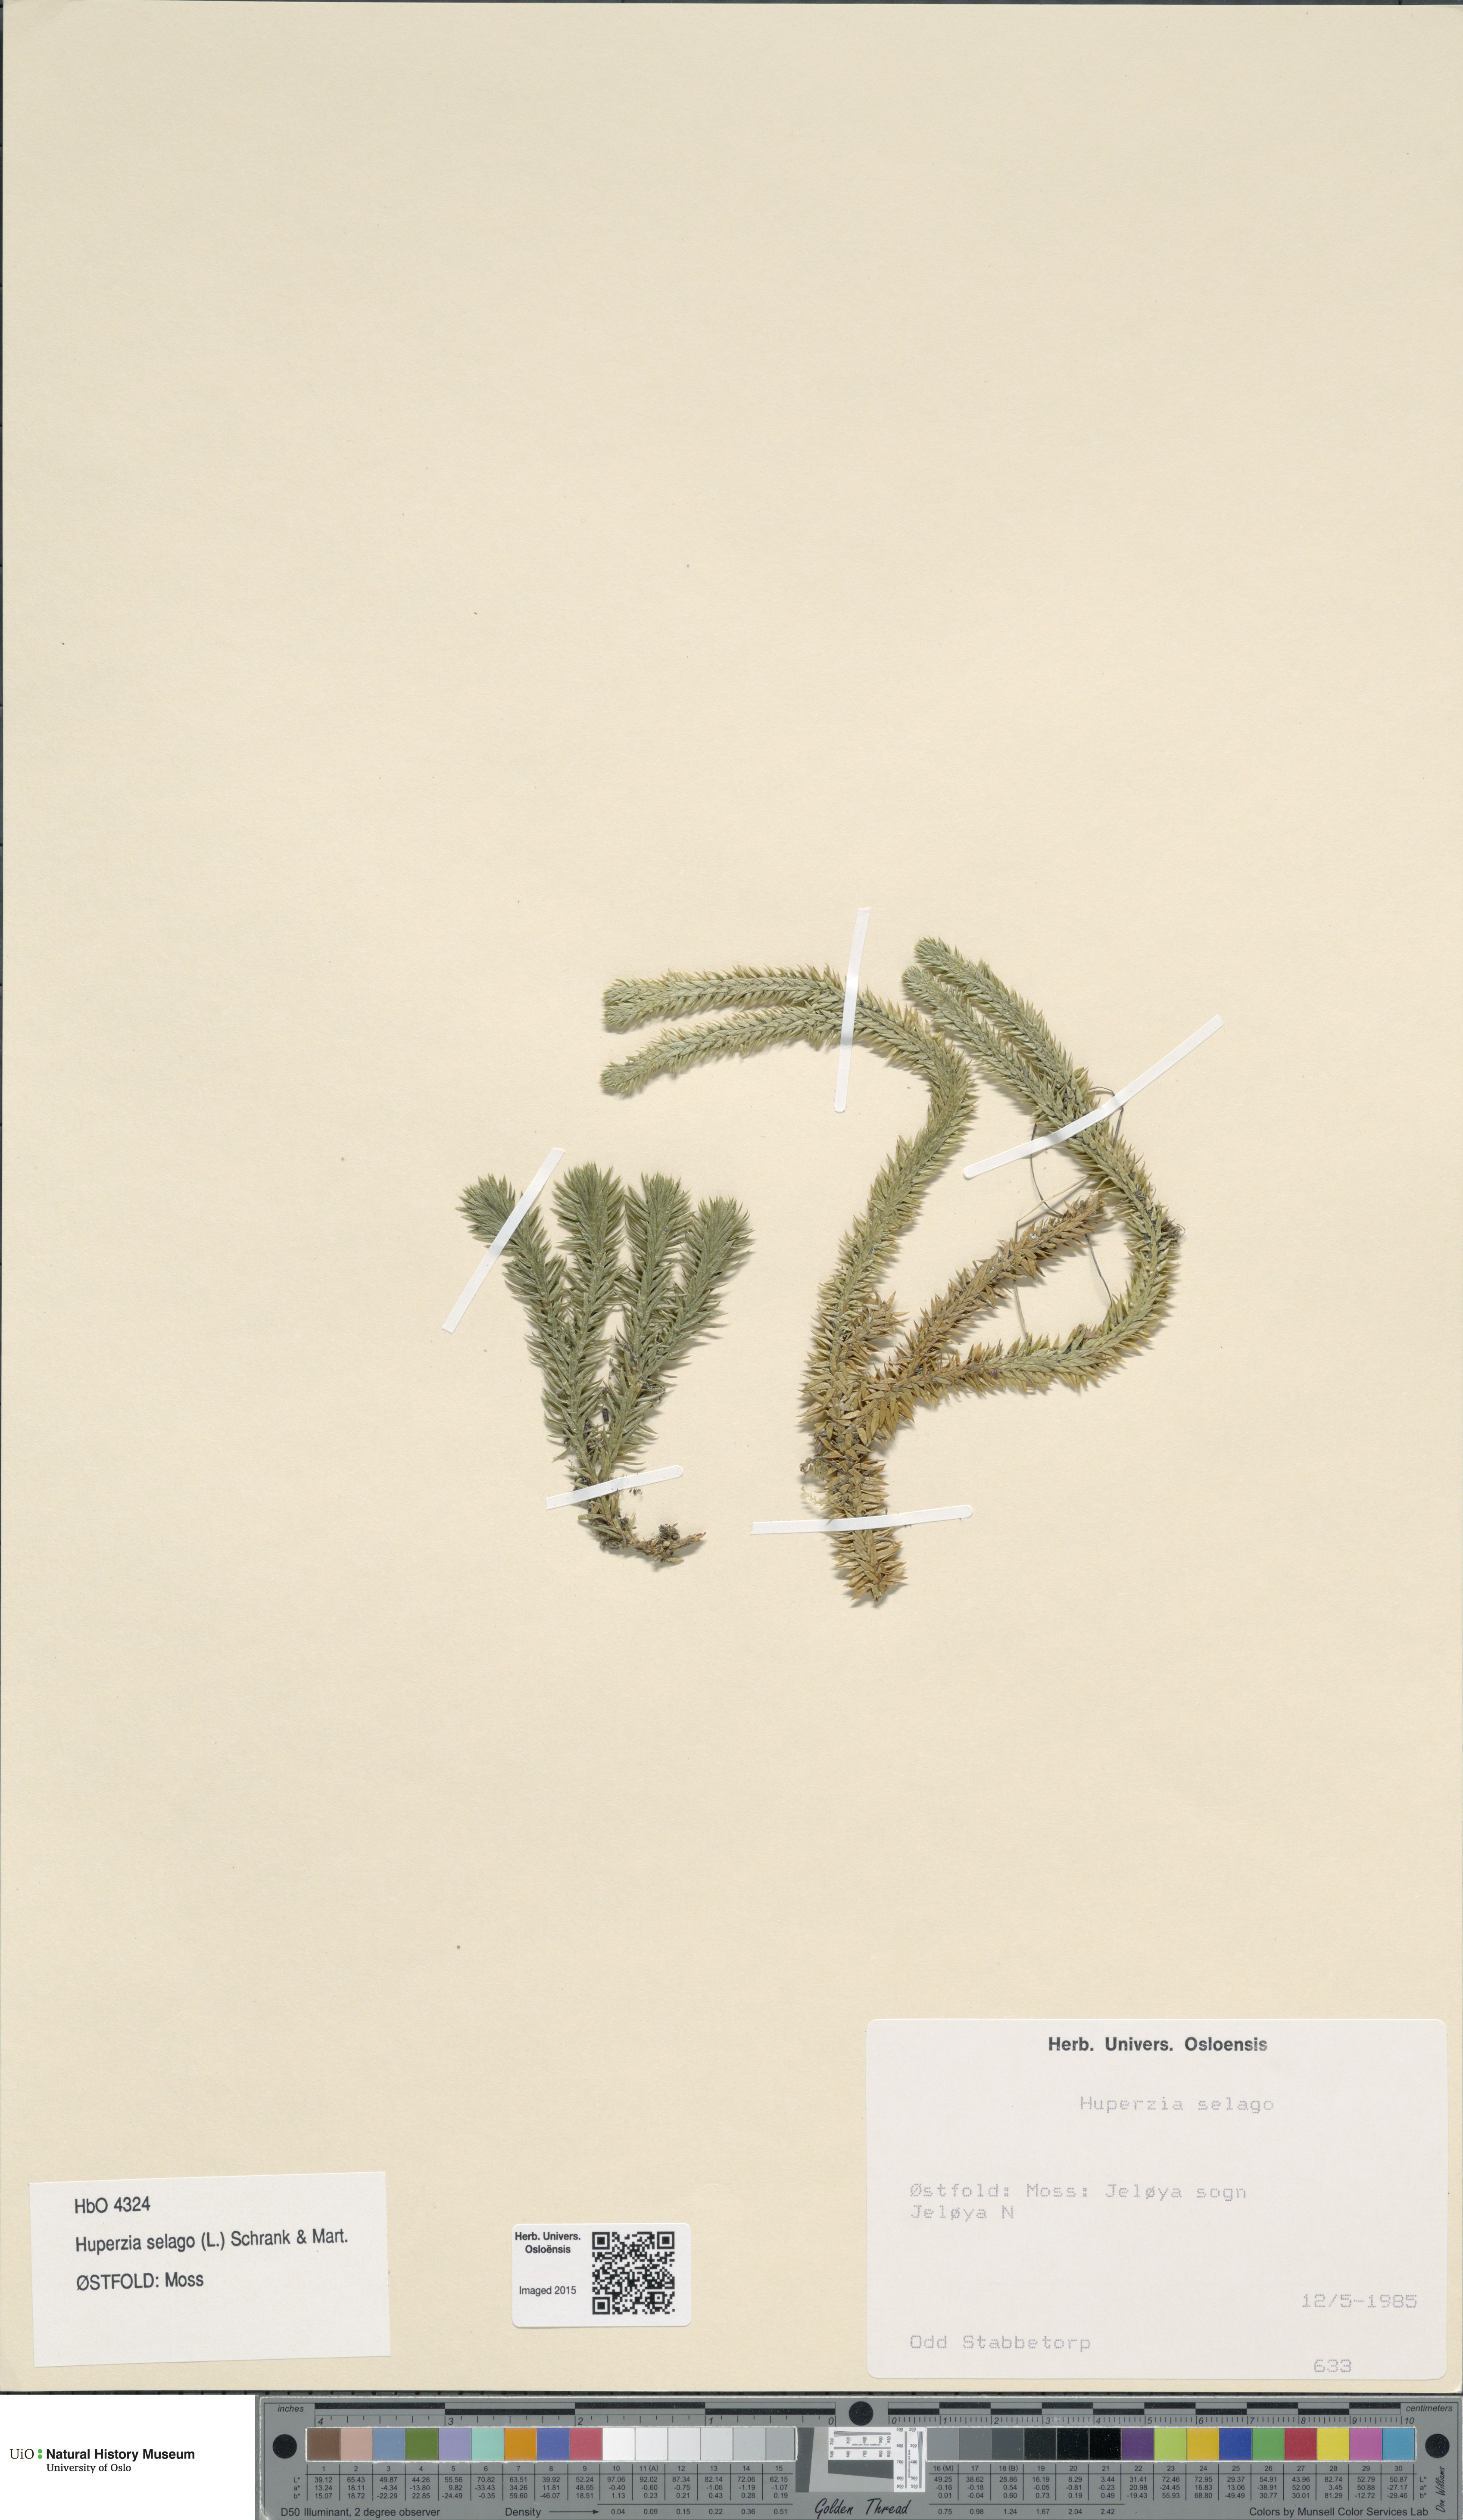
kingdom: Plantae
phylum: Tracheophyta
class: Lycopodiopsida
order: Lycopodiales
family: Lycopodiaceae
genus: Huperzia
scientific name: Huperzia selago
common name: Northern firmoss
